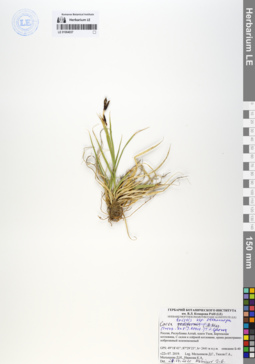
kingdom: Plantae
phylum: Tracheophyta
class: Liliopsida
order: Poales
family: Cyperaceae
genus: Carex
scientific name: Carex stenocarpa
